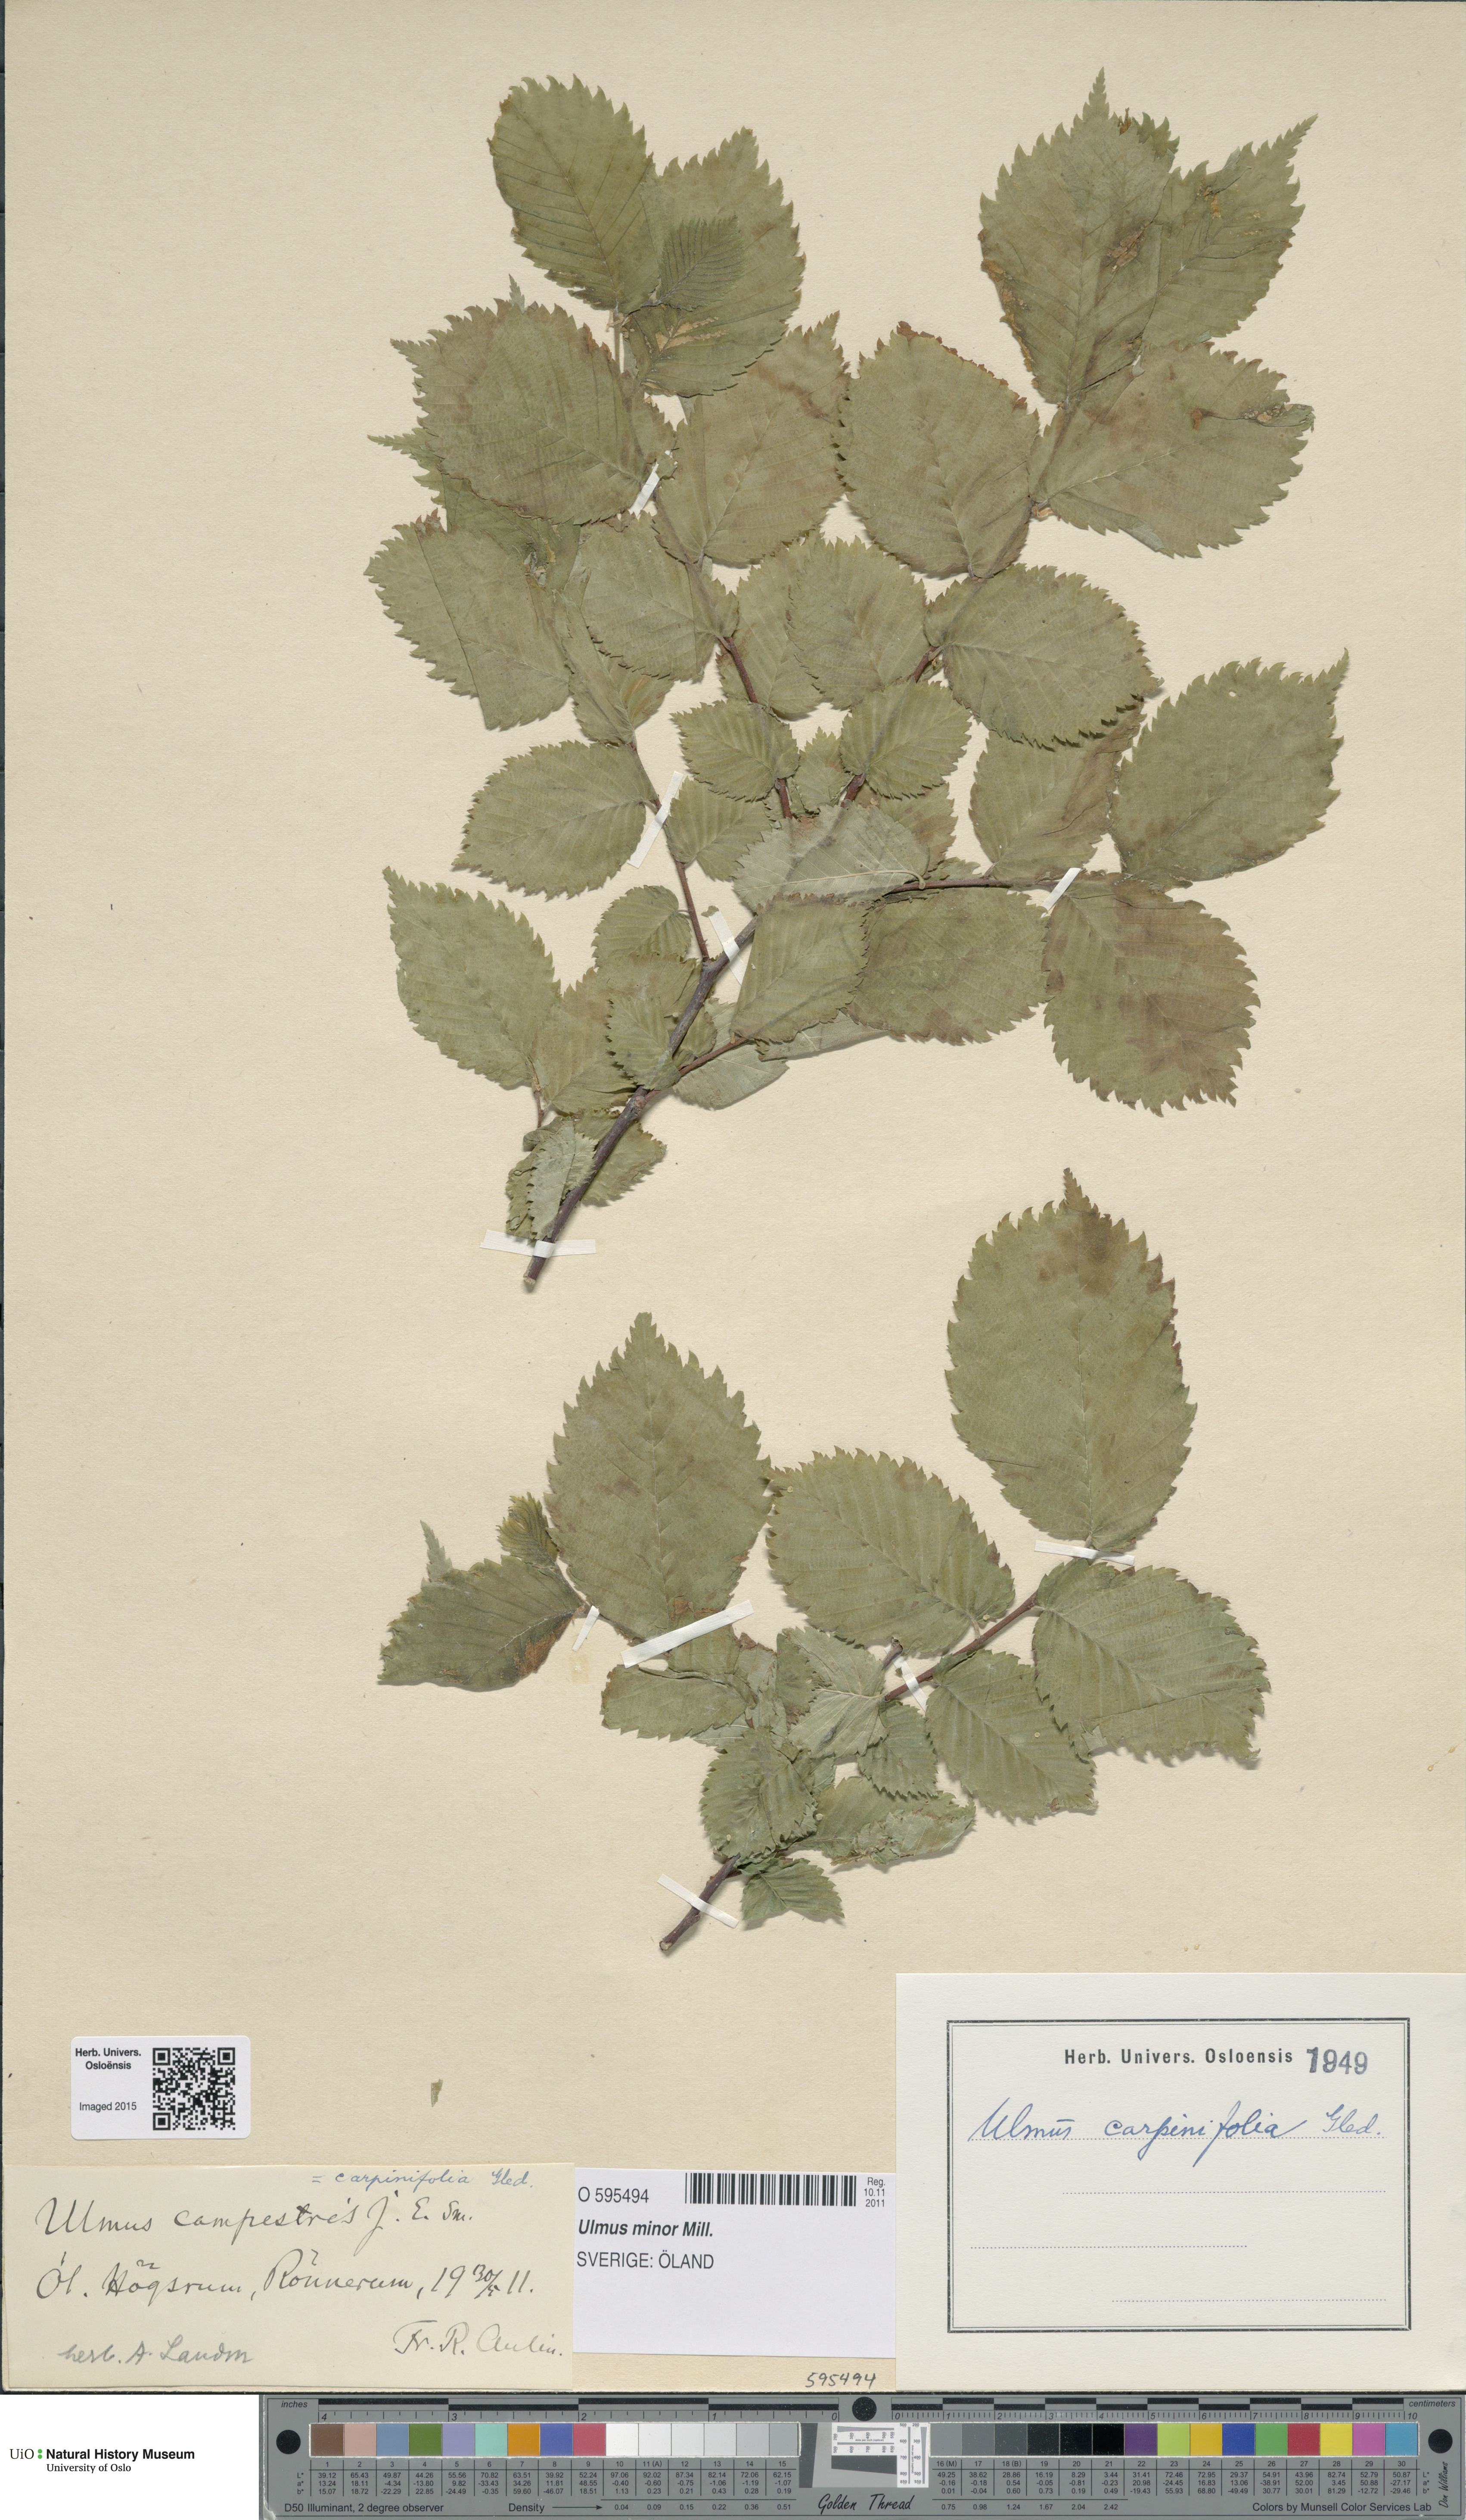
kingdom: Plantae
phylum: Tracheophyta
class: Magnoliopsida
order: Rosales
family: Ulmaceae
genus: Ulmus
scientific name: Ulmus minor
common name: Small-leaved elm
